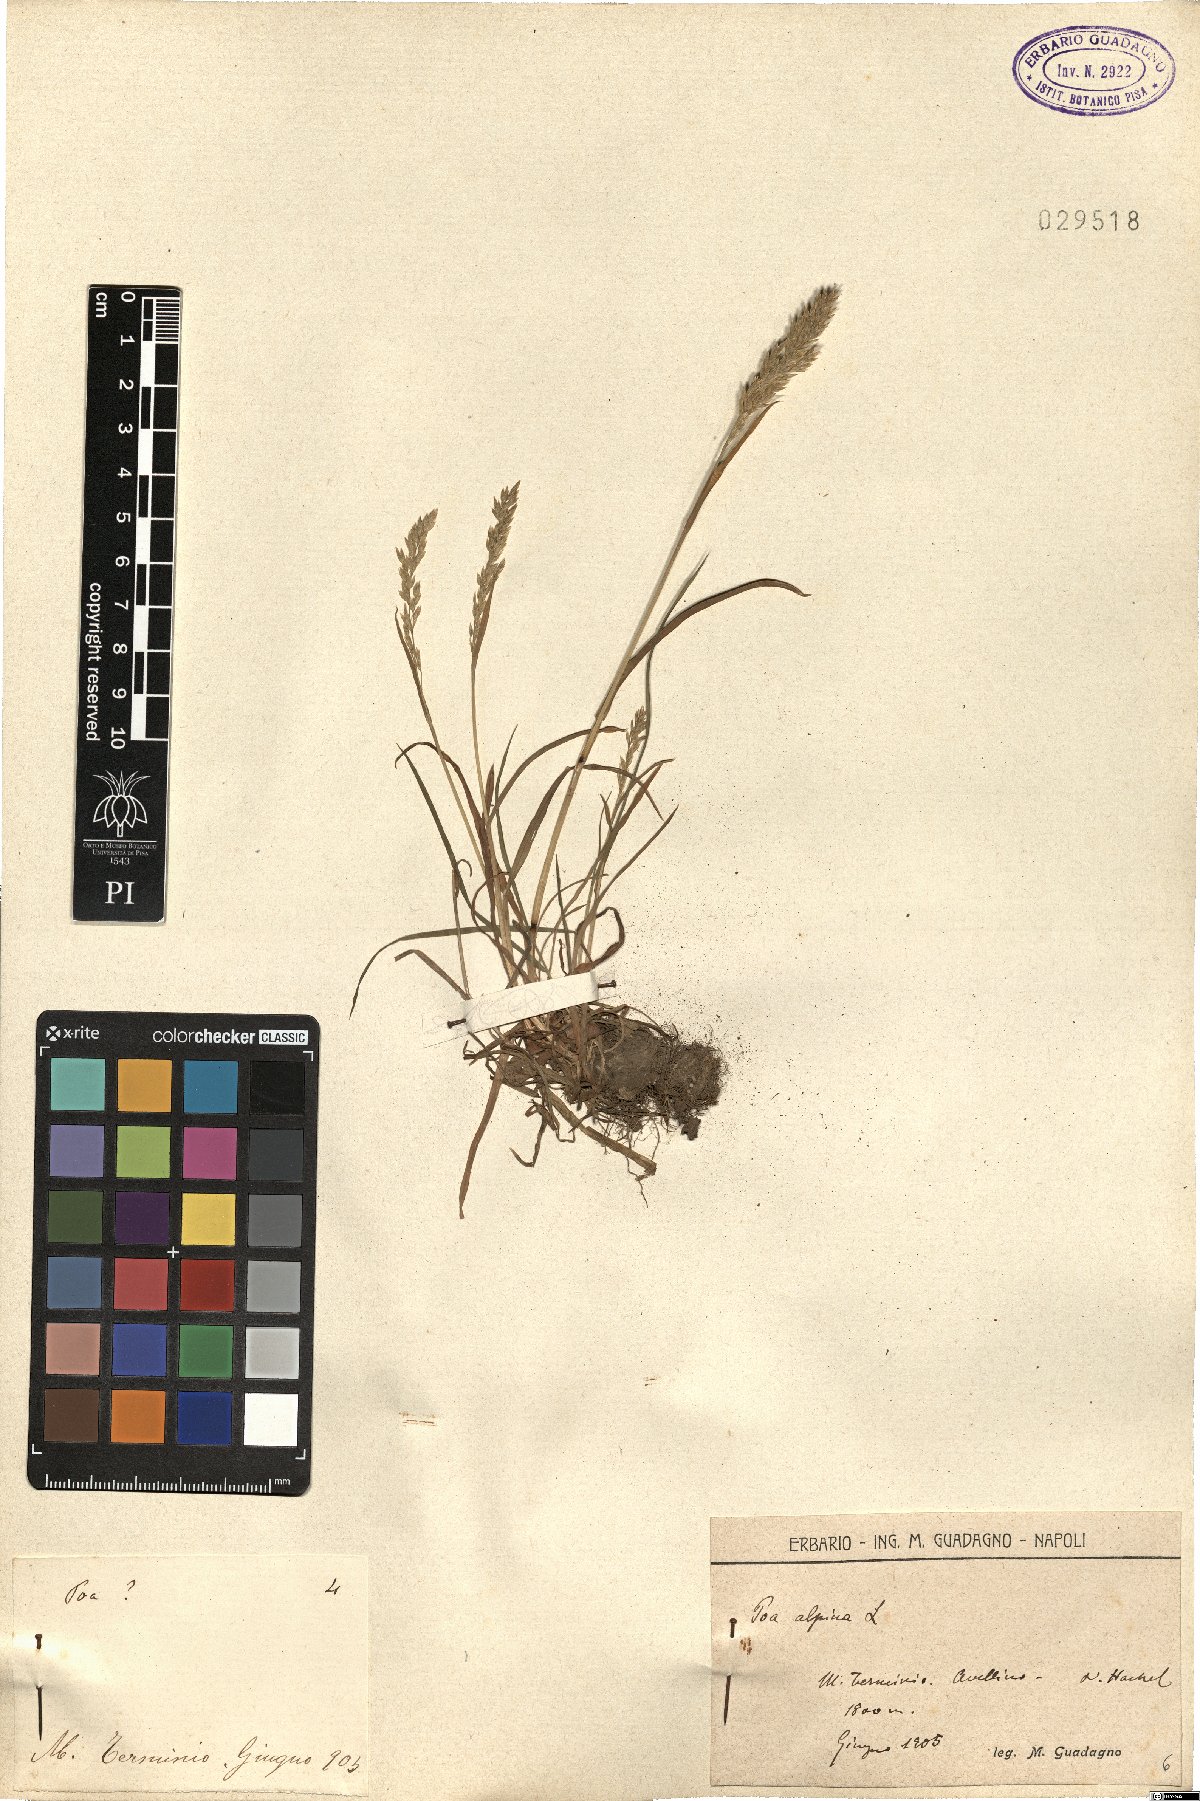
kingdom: Plantae
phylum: Tracheophyta
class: Liliopsida
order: Poales
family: Poaceae
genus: Poa
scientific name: Poa alpina
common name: Alpine bluegrass
